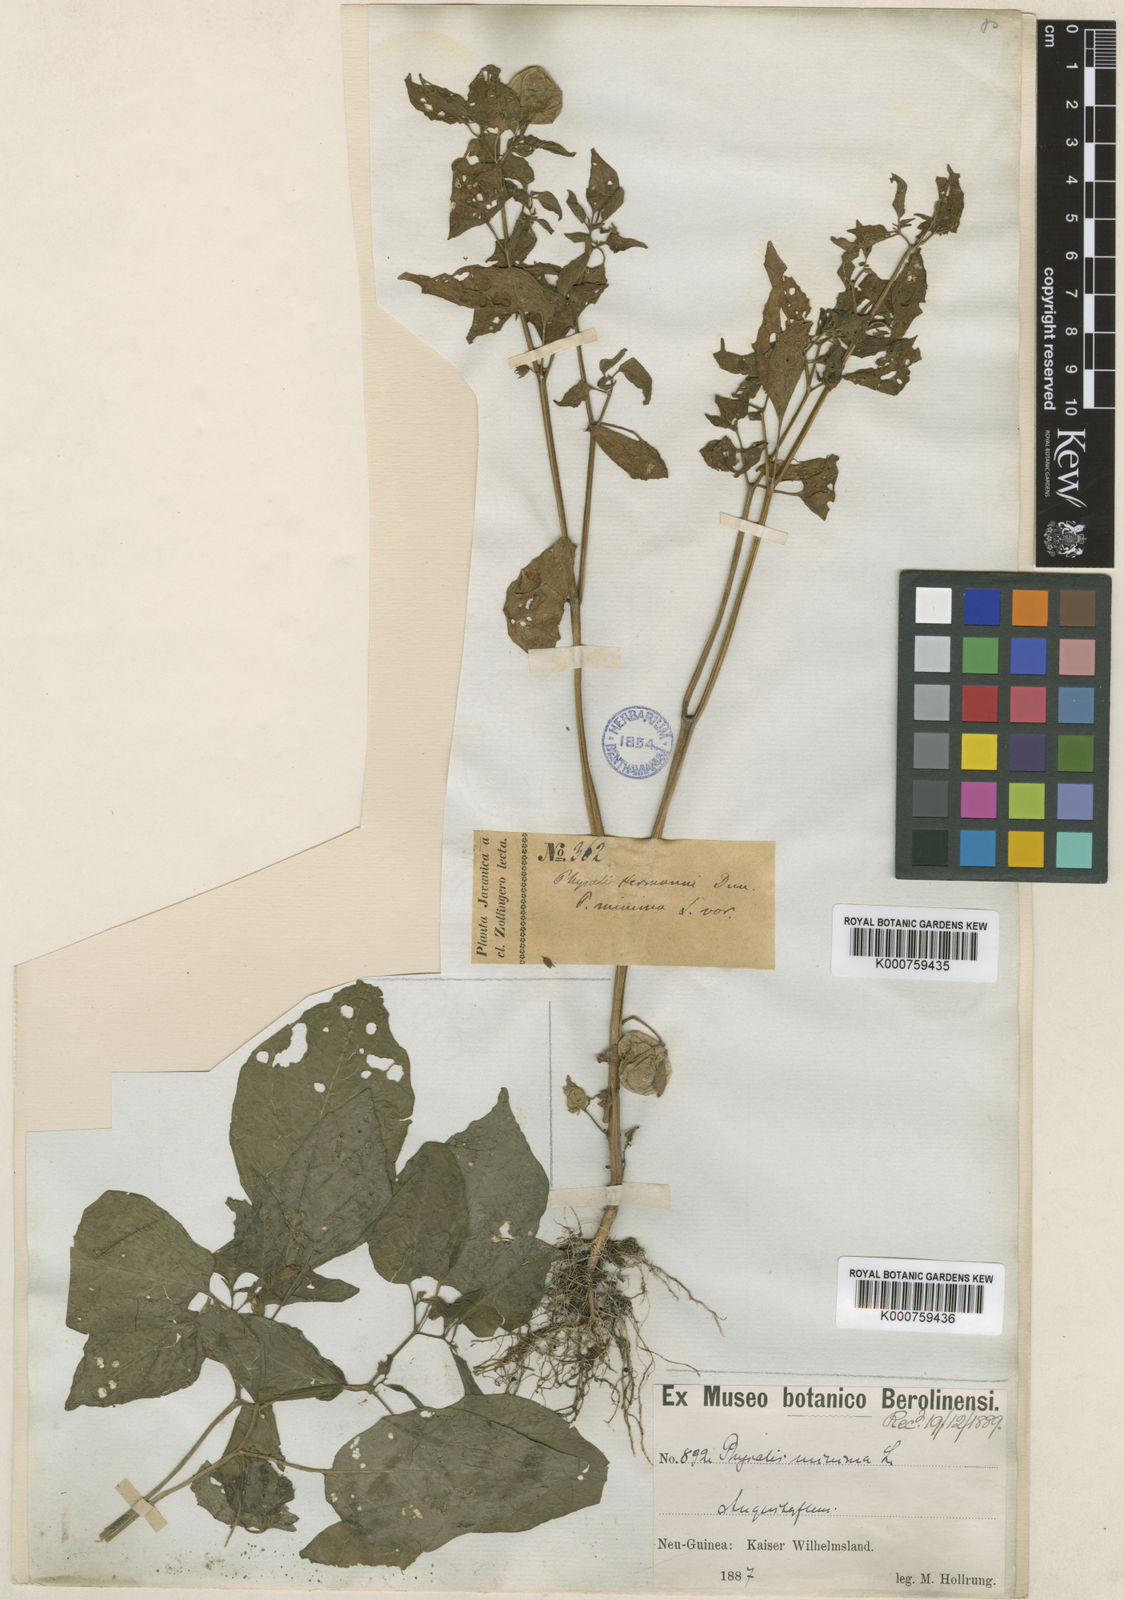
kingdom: Plantae
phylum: Tracheophyta
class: Magnoliopsida
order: Solanales
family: Solanaceae
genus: Physalis
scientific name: Physalis angulata
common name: Angular winter-cherry
